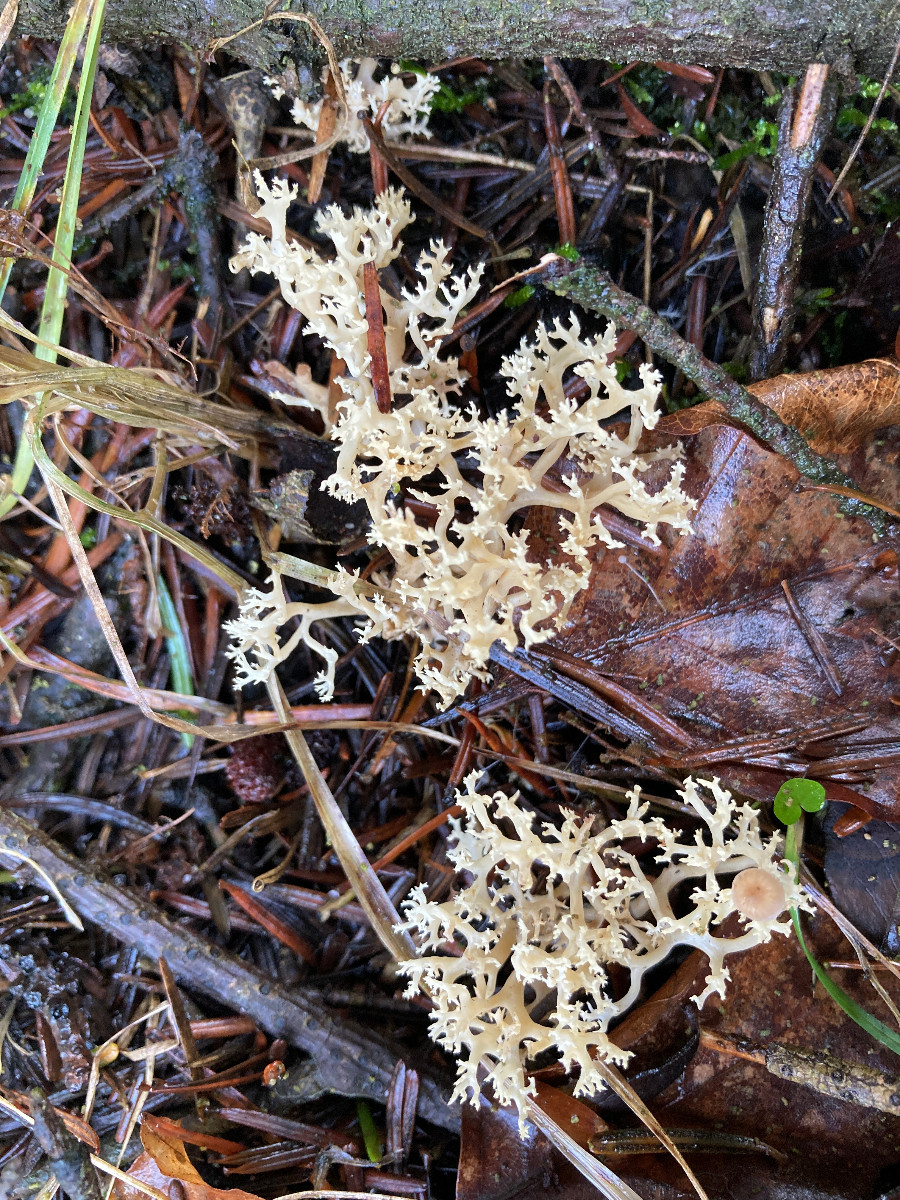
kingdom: Fungi
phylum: Basidiomycota
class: Agaricomycetes
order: Gomphales
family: Gomphaceae
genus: Phaeoclavulina
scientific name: Phaeoclavulina corrugata
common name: peber-koralsvamp
